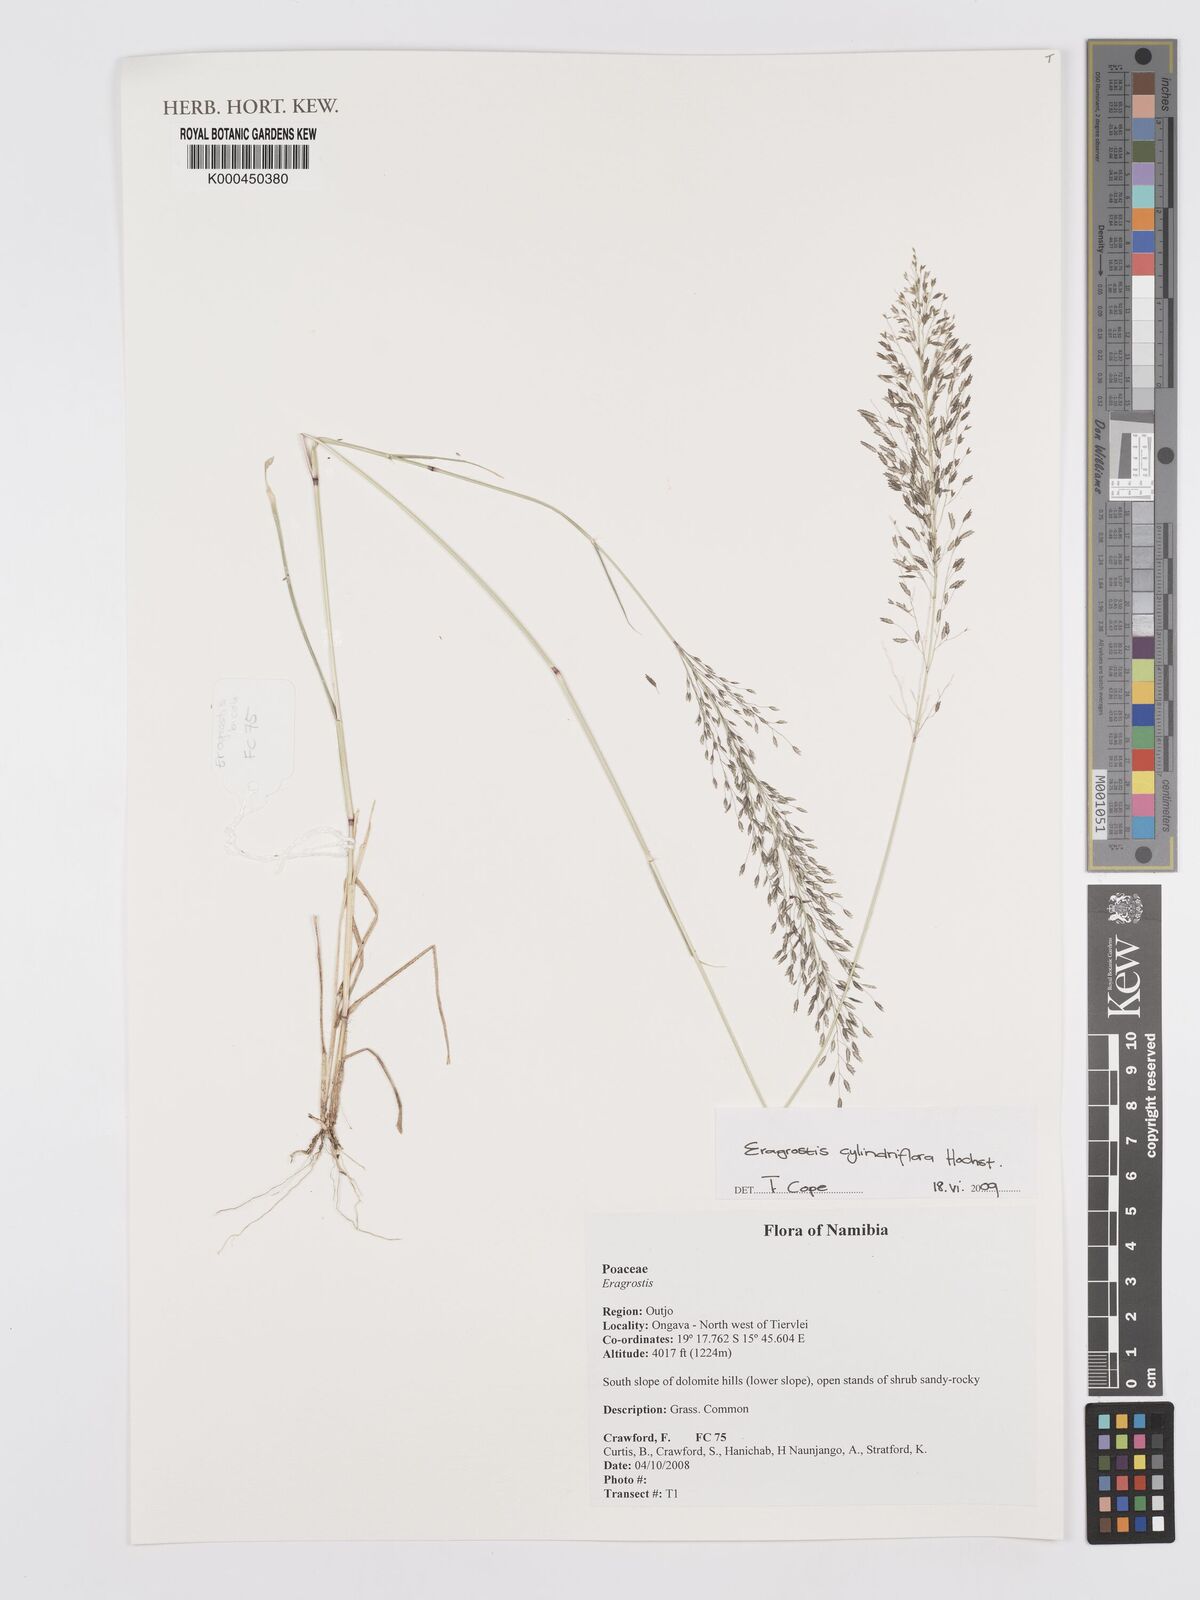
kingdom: Plantae
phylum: Tracheophyta
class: Liliopsida
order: Poales
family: Poaceae
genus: Eragrostis
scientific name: Eragrostis cylindriflora
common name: Cylinderflower lovegrass
